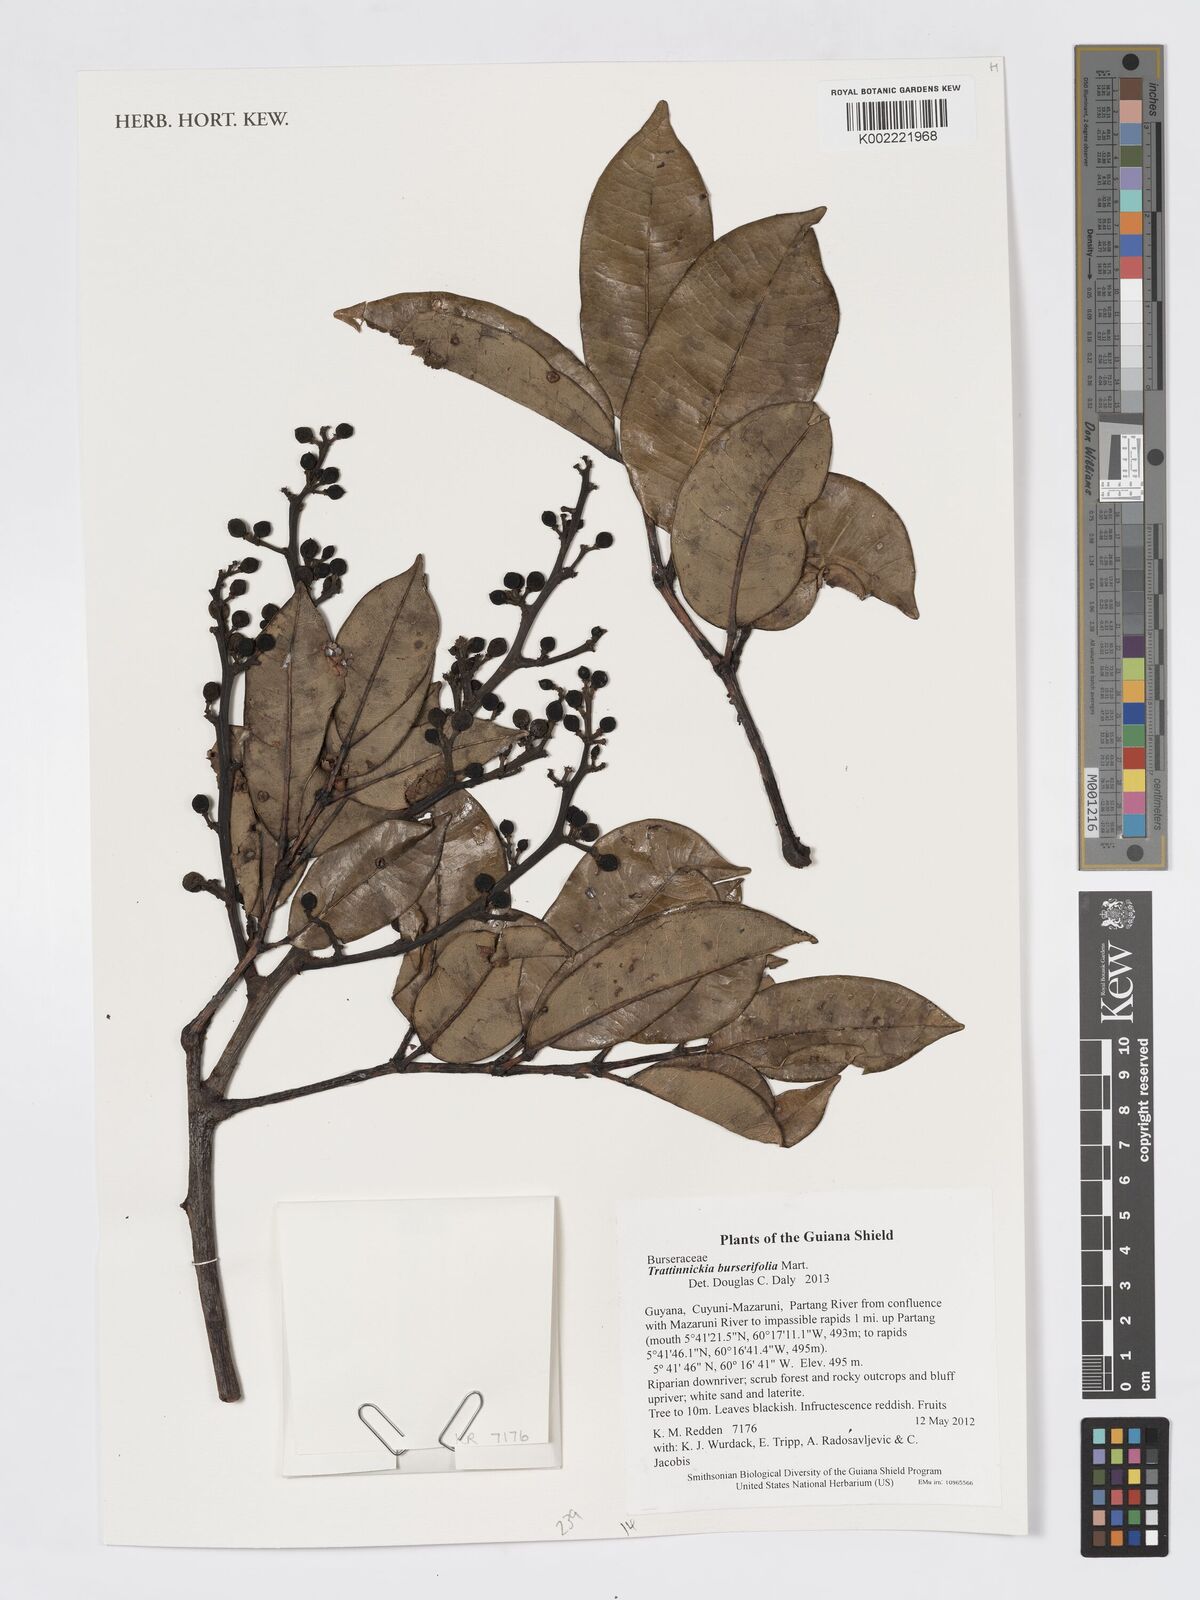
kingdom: Plantae
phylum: Tracheophyta
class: Magnoliopsida
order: Sapindales
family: Burseraceae
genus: Trattinnickia
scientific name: Trattinnickia burserifolia
